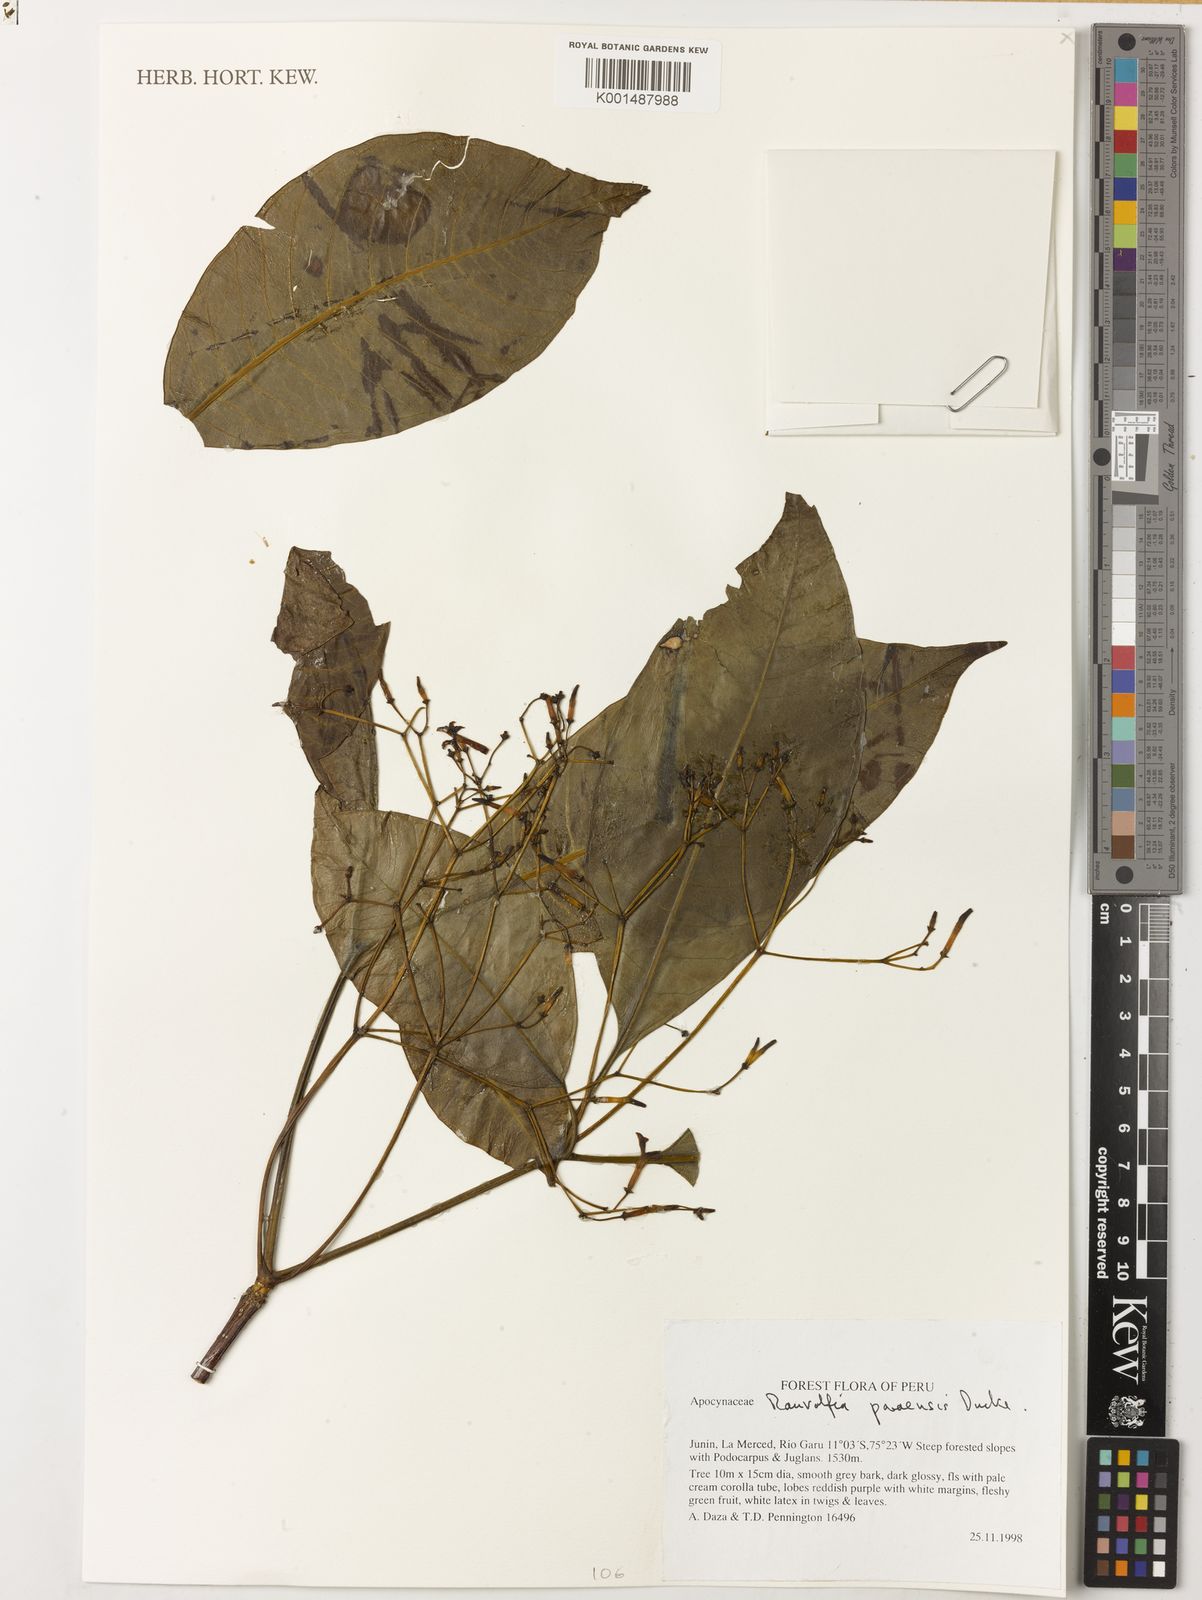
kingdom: Plantae
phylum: Tracheophyta
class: Magnoliopsida
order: Gentianales
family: Apocynaceae
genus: Rauvolfia
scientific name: Rauvolfia paraensis
